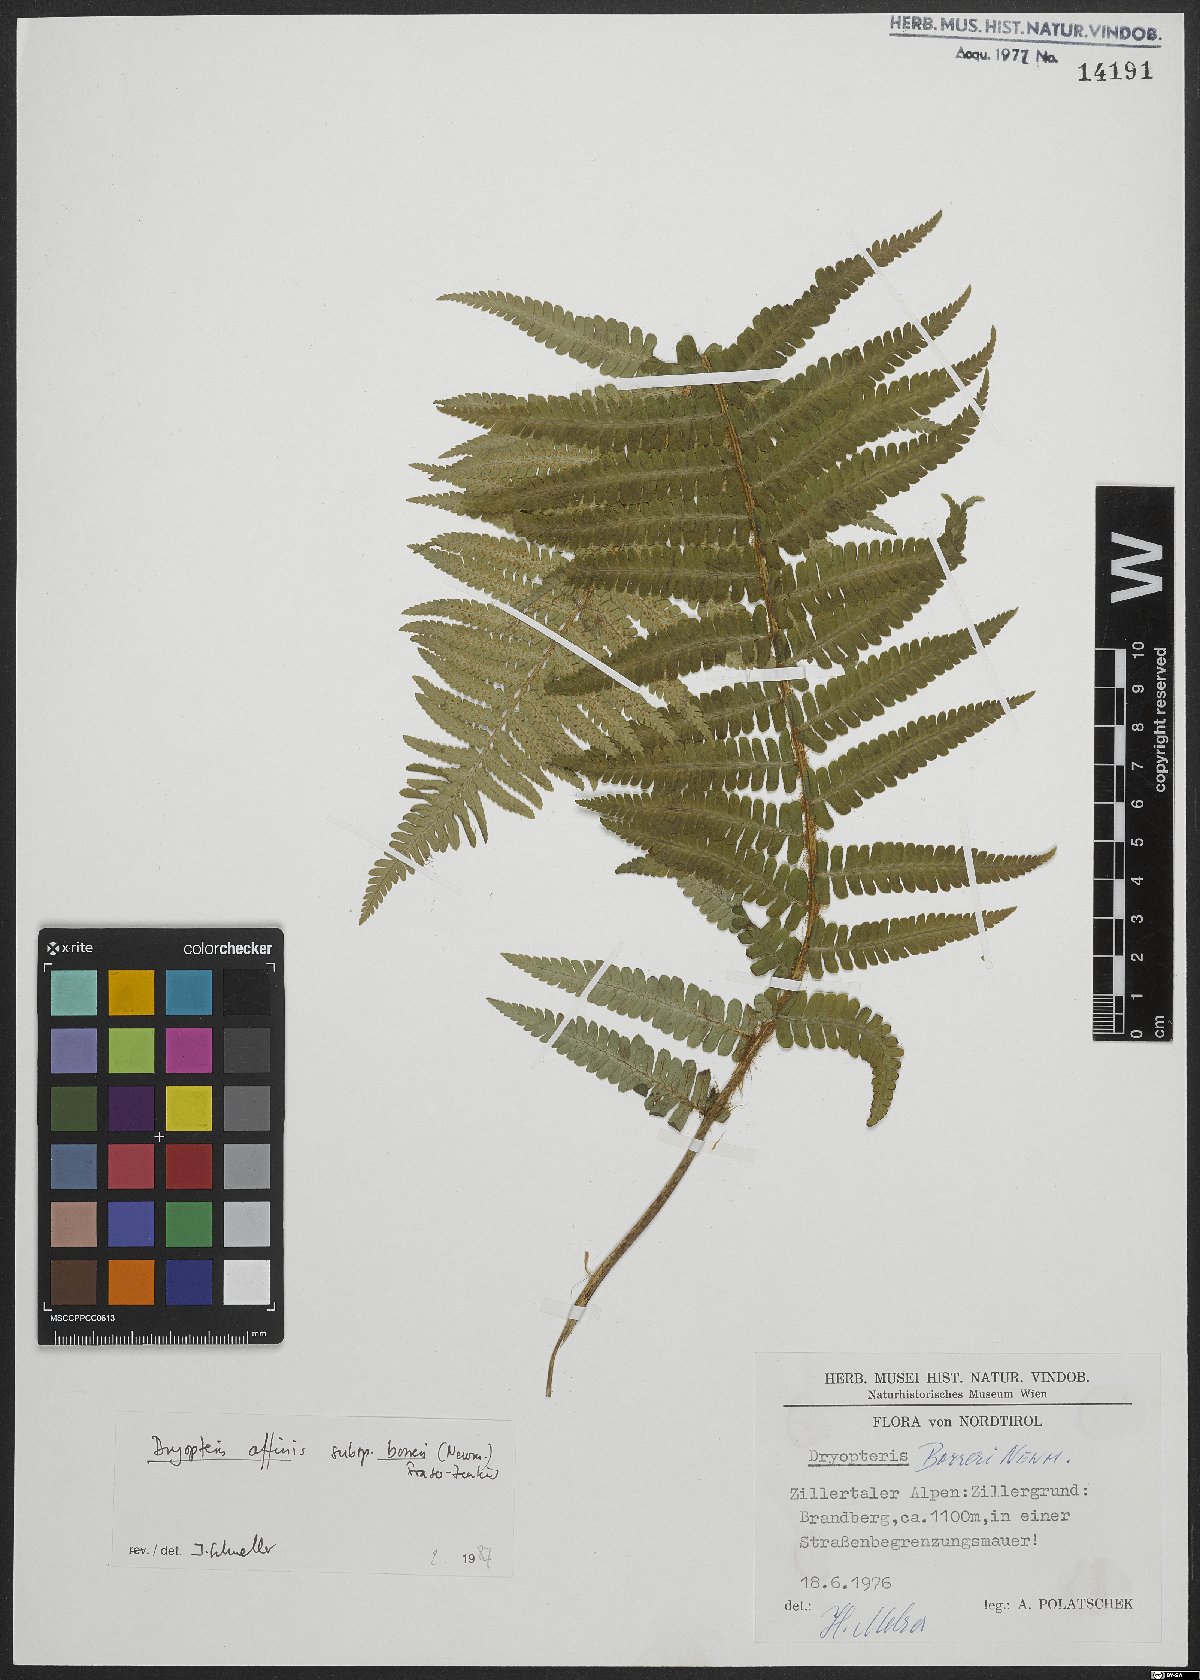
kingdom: Plantae
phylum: Tracheophyta
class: Polypodiopsida
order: Polypodiales
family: Dryopteridaceae
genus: Dryopteris
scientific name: Dryopteris borreri
